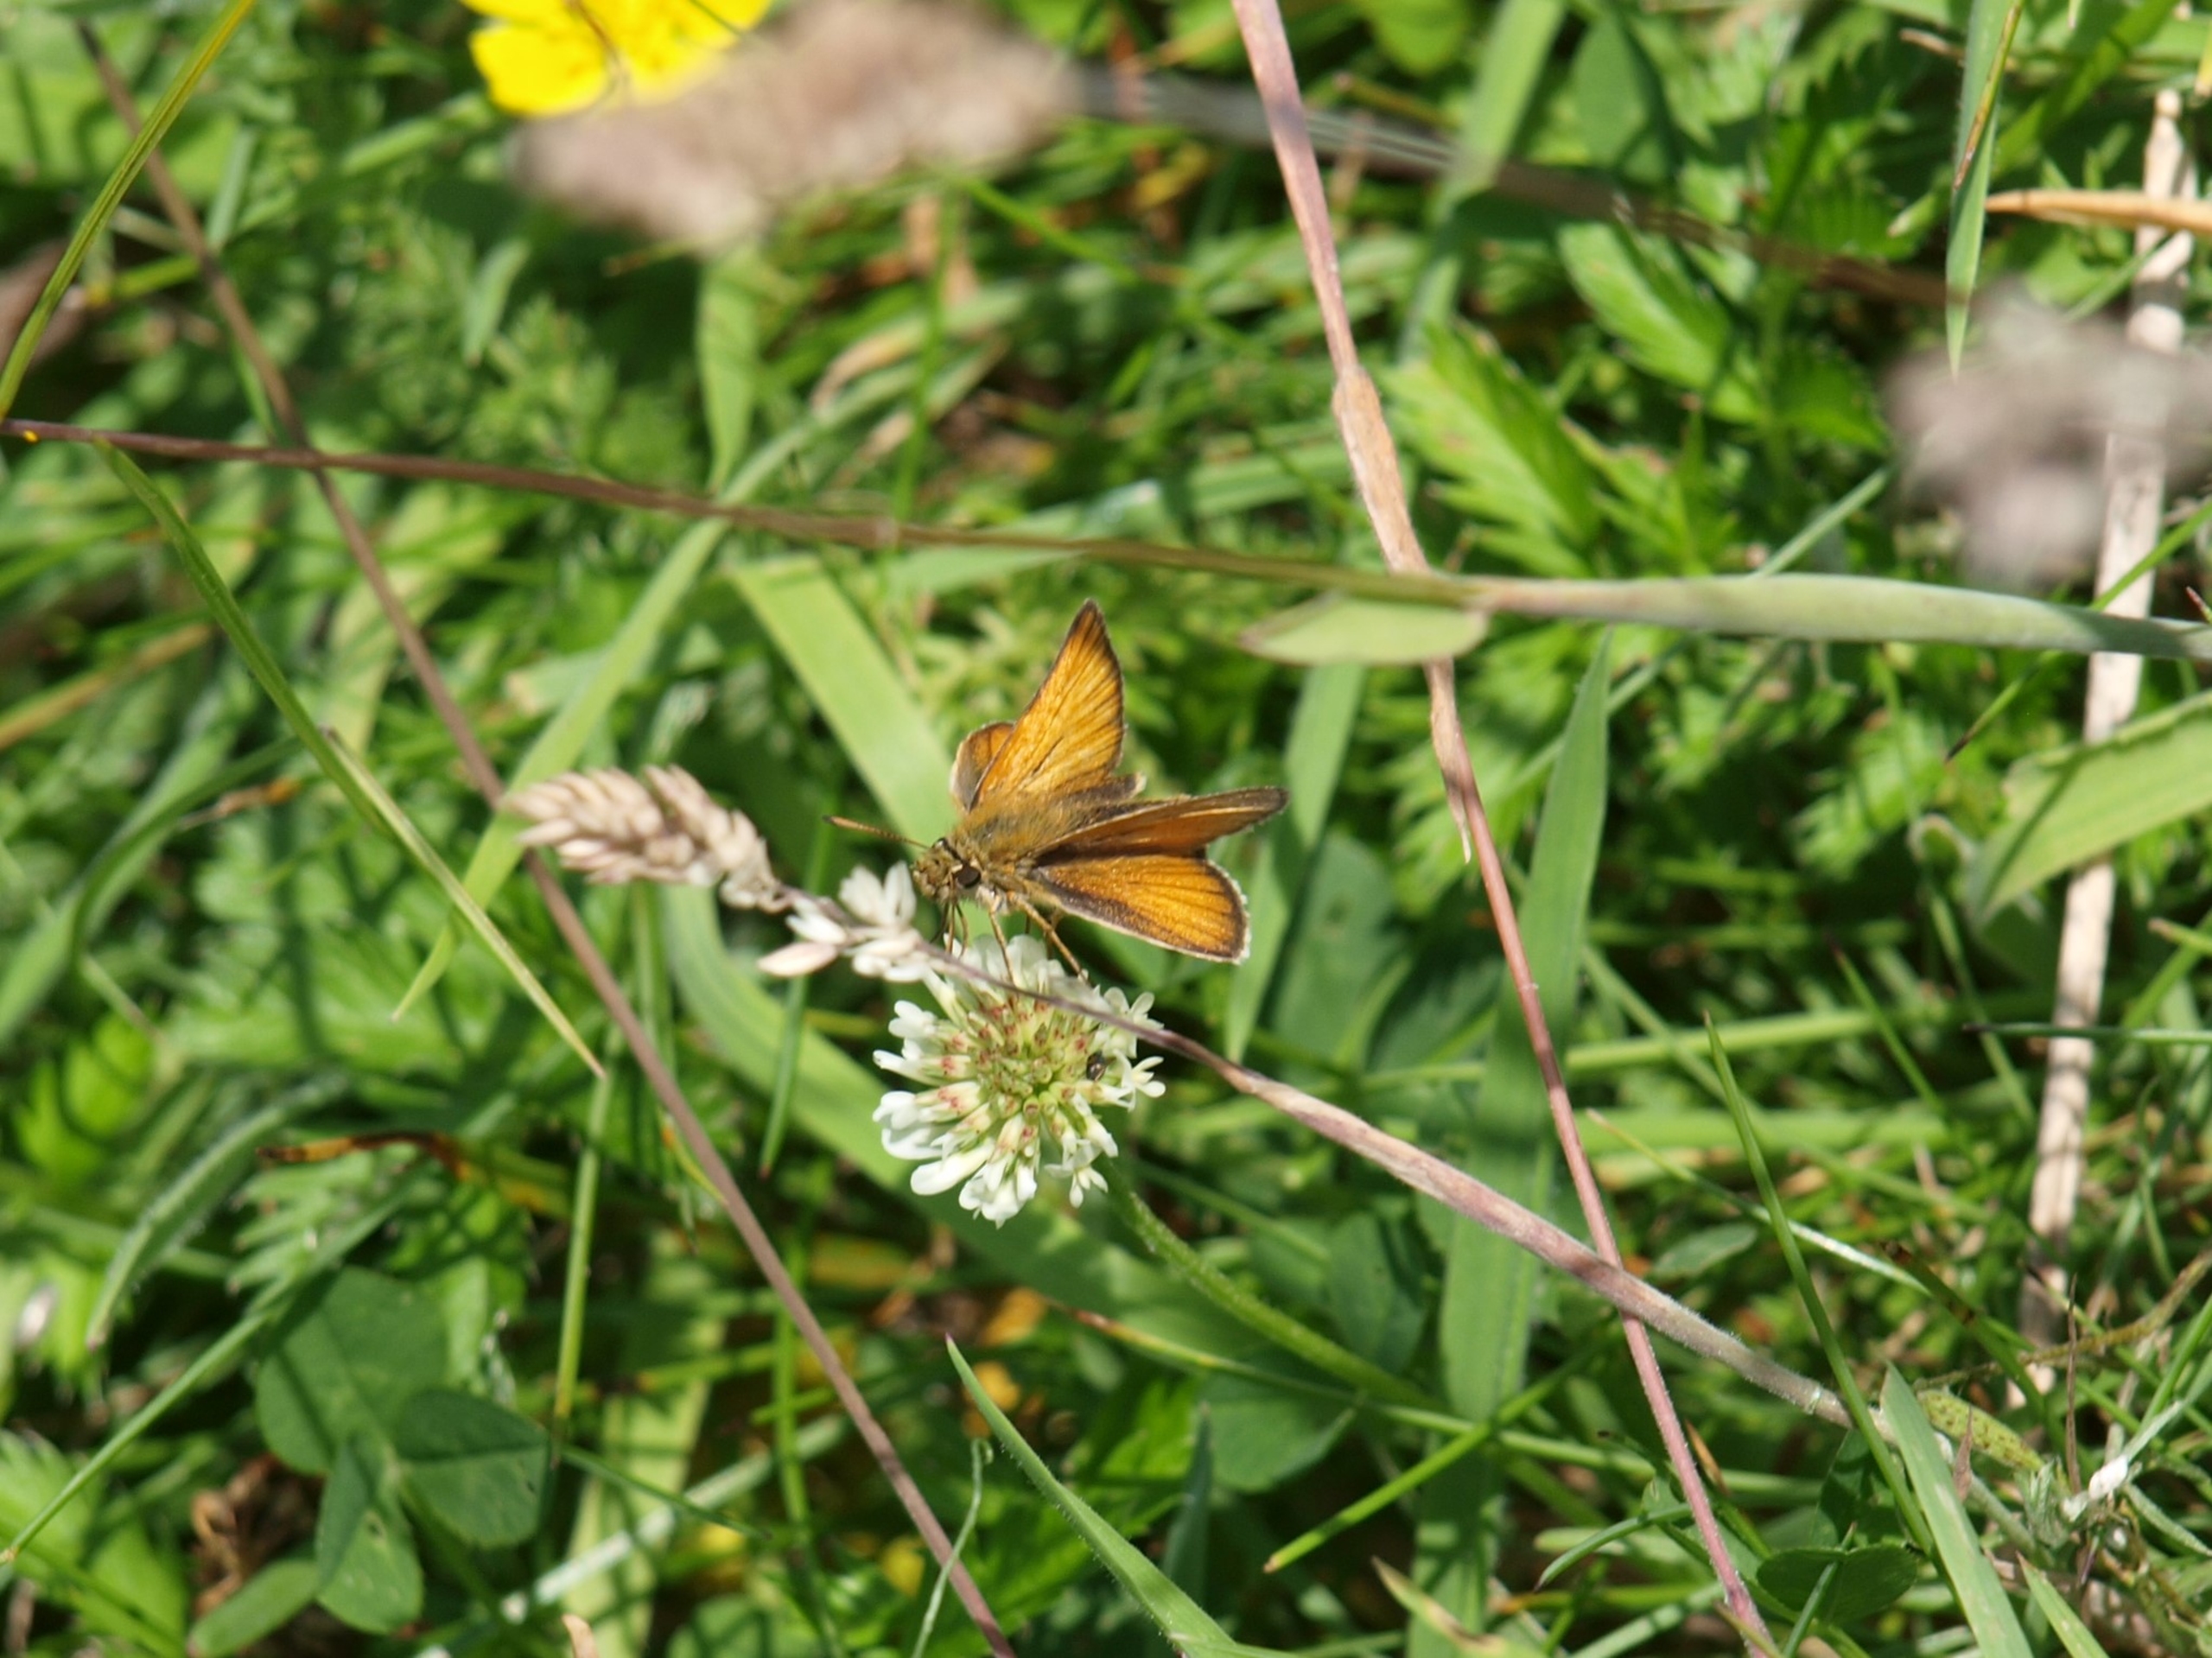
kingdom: Animalia
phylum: Arthropoda
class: Insecta
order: Lepidoptera
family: Hesperiidae
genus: Thymelicus
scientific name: Thymelicus lineola
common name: Stregbredpande
